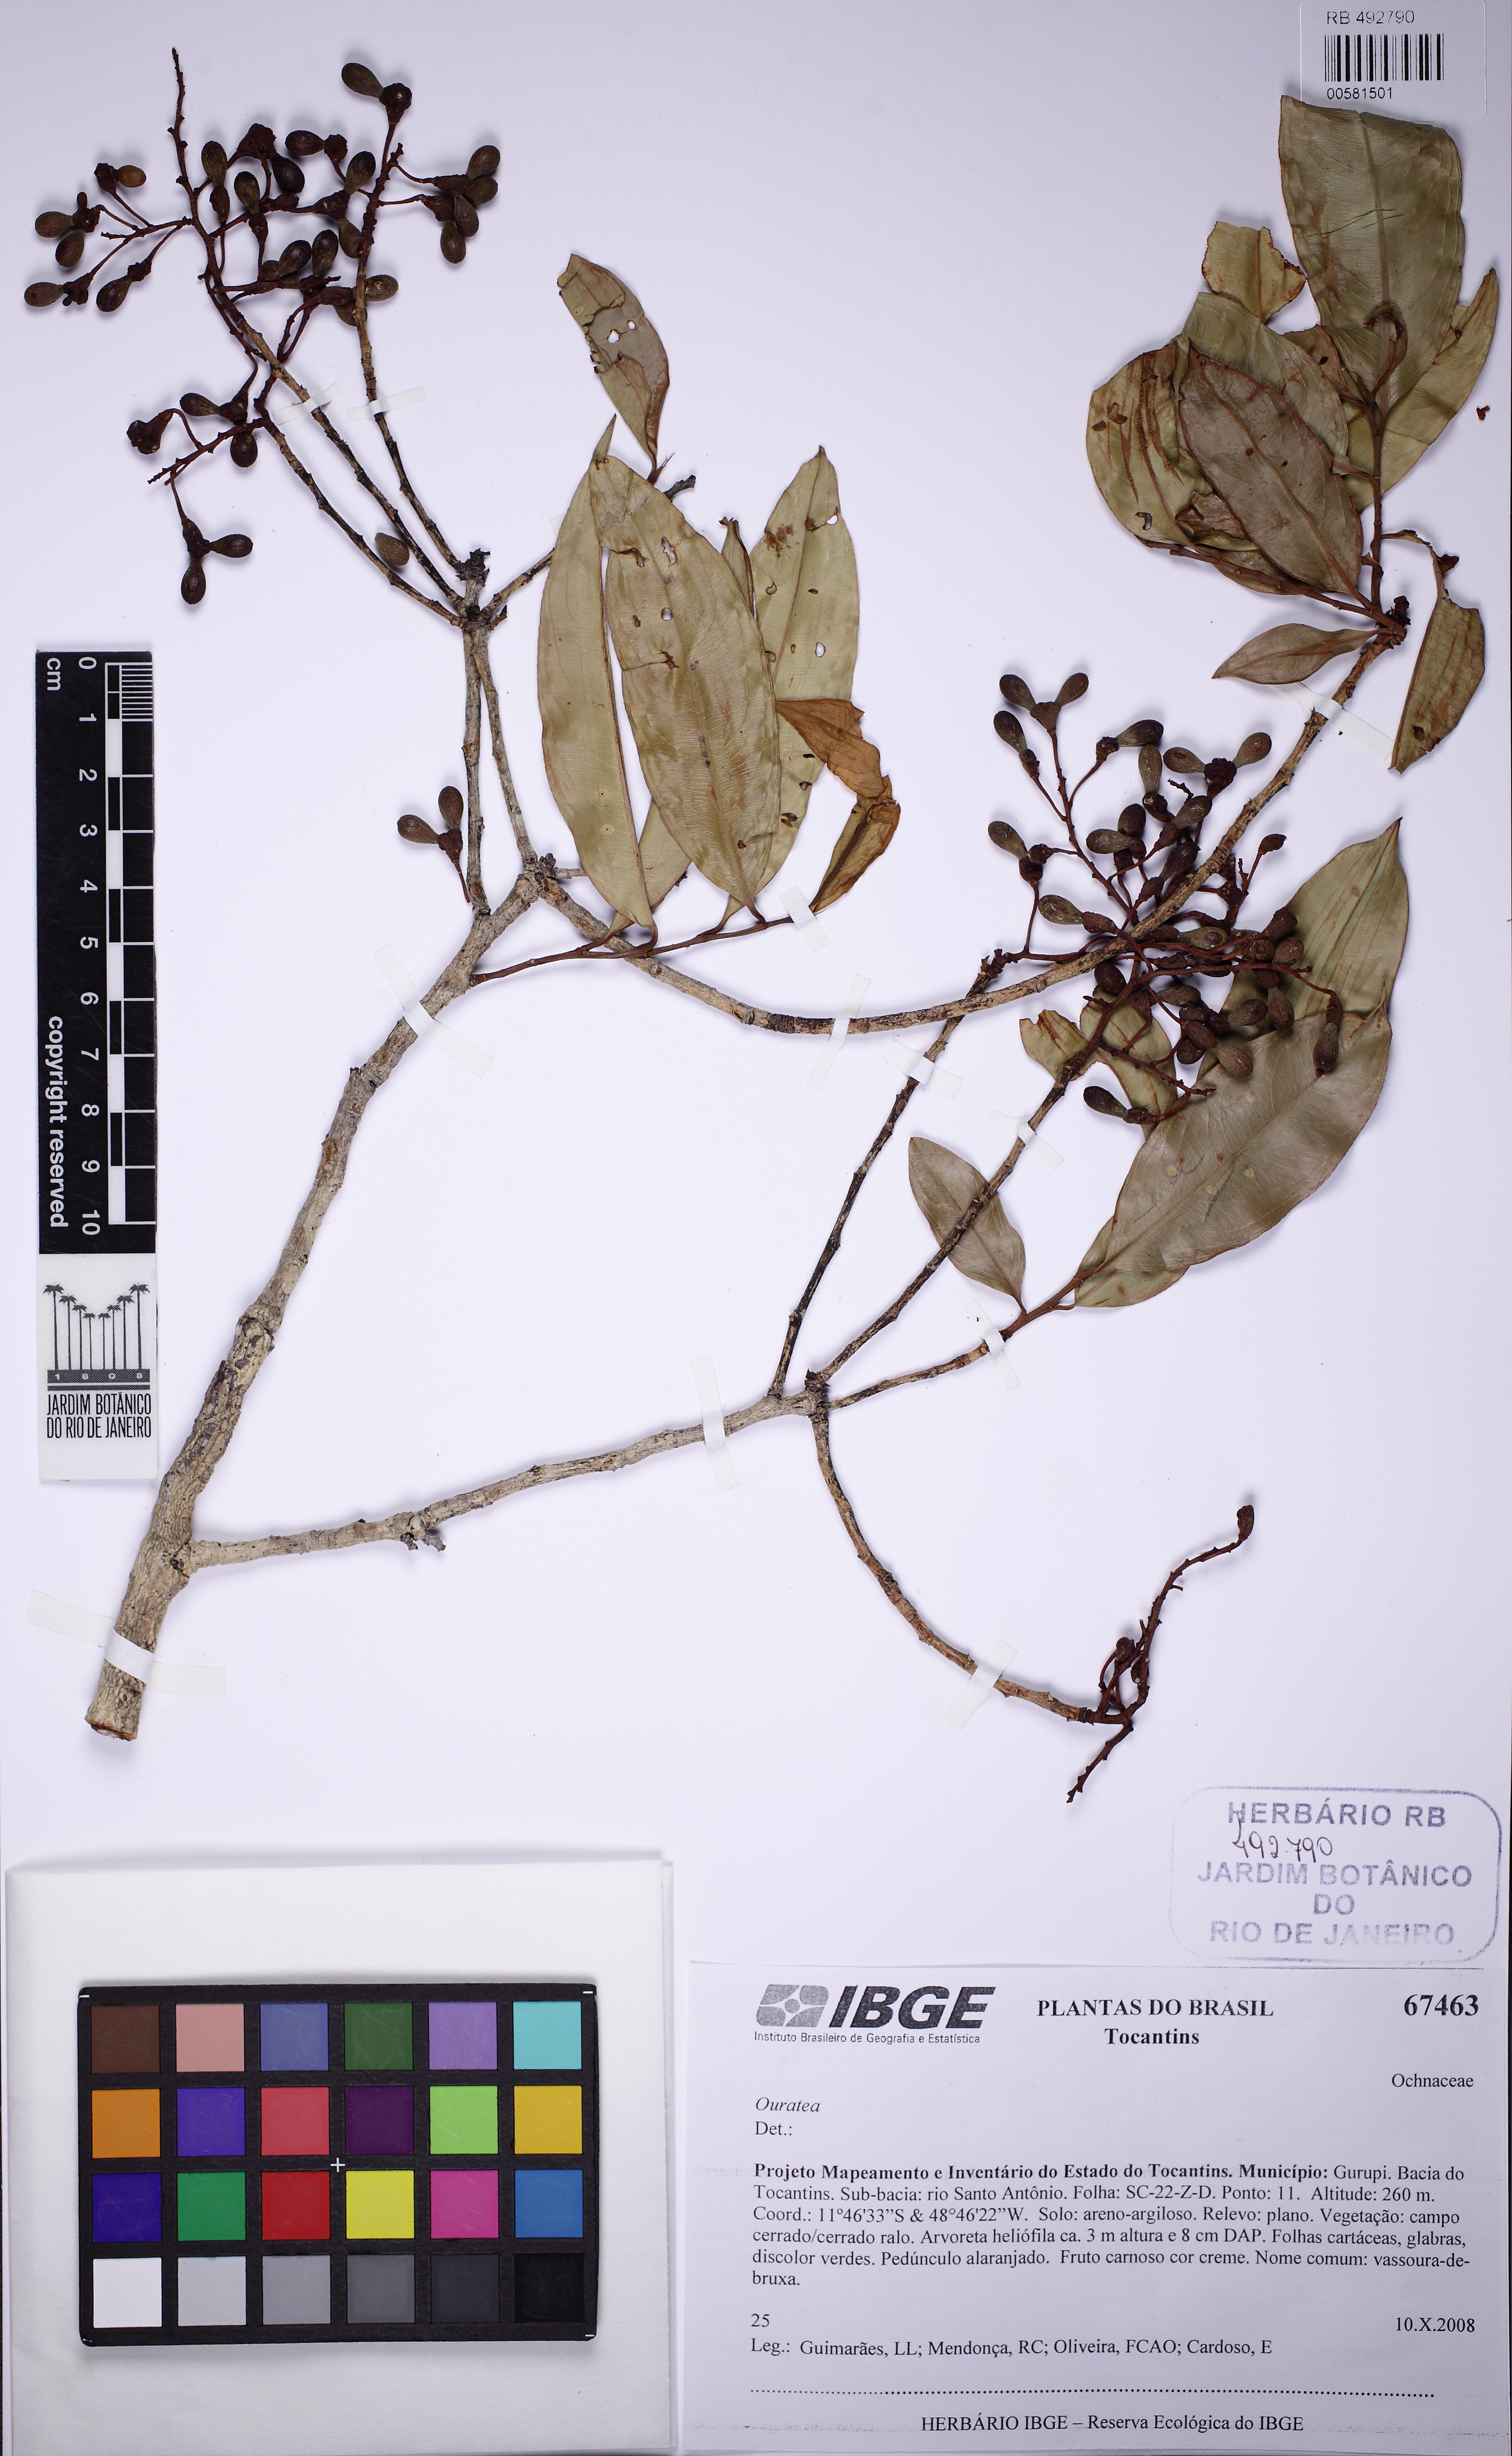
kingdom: Plantae
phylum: Tracheophyta
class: Magnoliopsida
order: Malpighiales
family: Ochnaceae
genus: Ouratea
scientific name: Ouratea hexasperma
